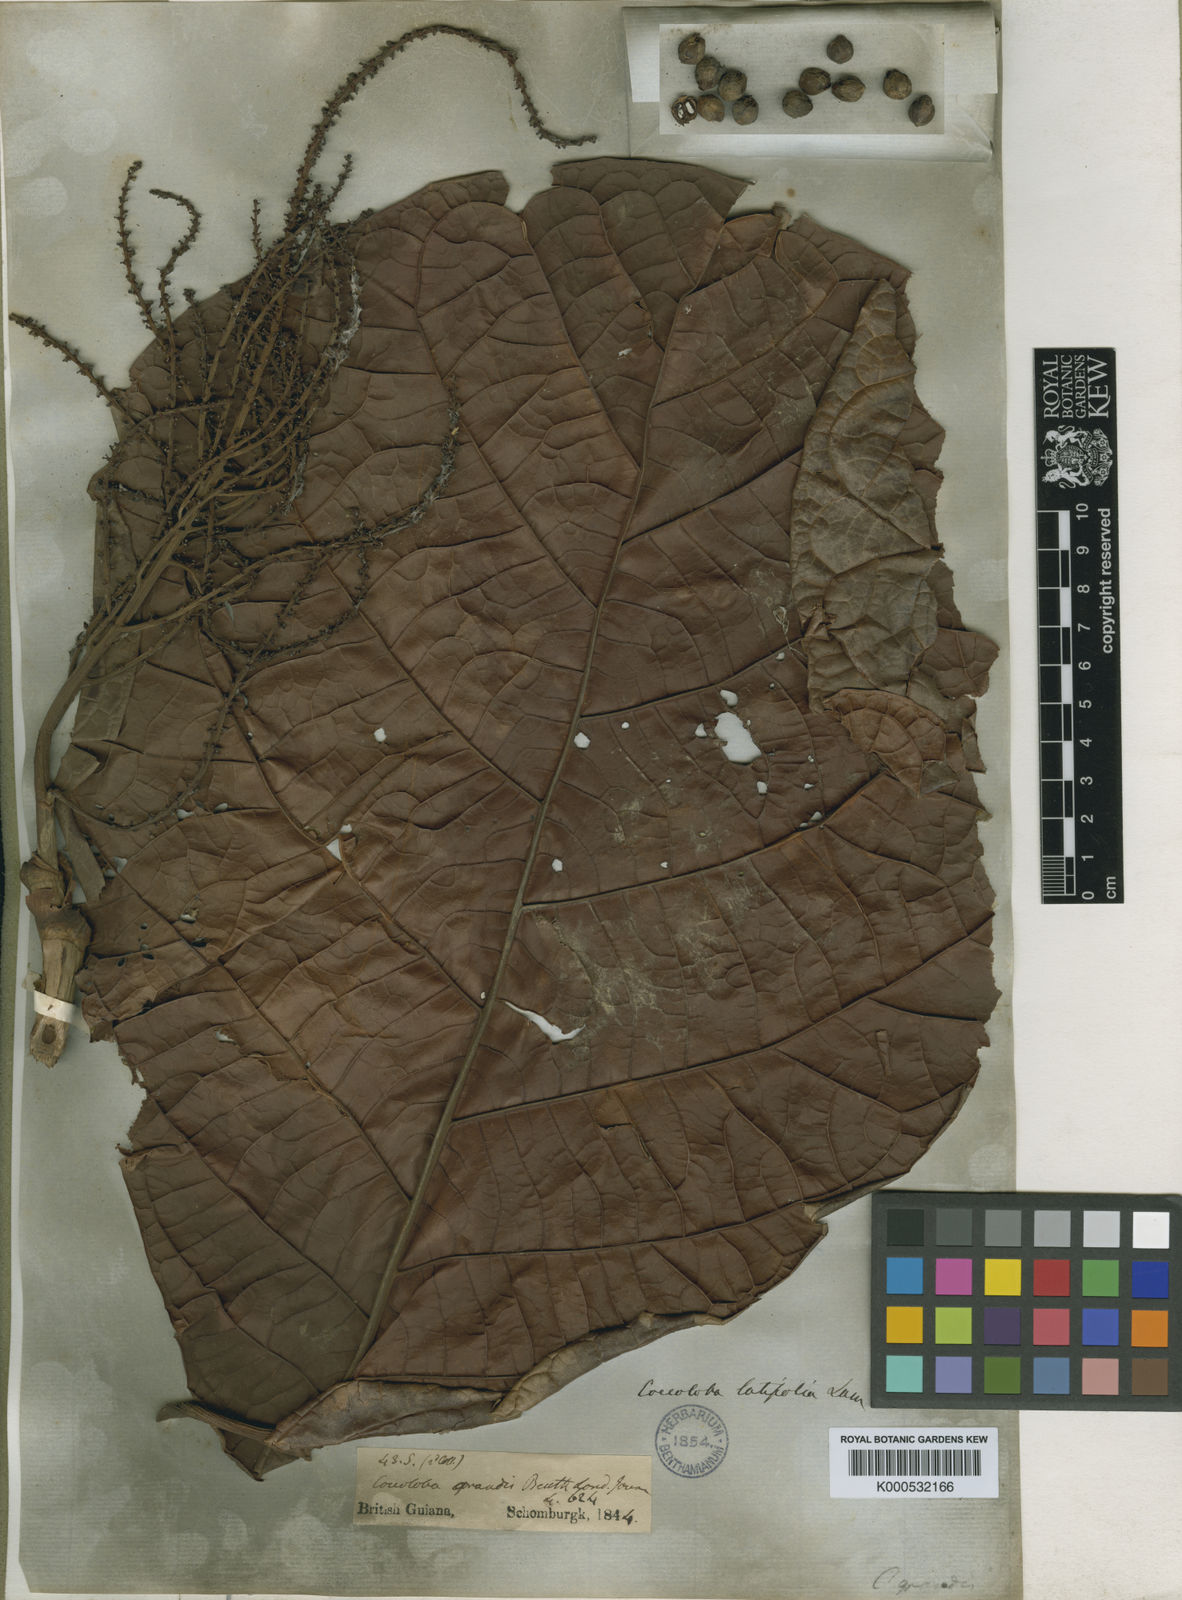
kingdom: Plantae
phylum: Tracheophyta
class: Magnoliopsida
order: Caryophyllales
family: Polygonaceae
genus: Coccoloba
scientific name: Coccoloba
